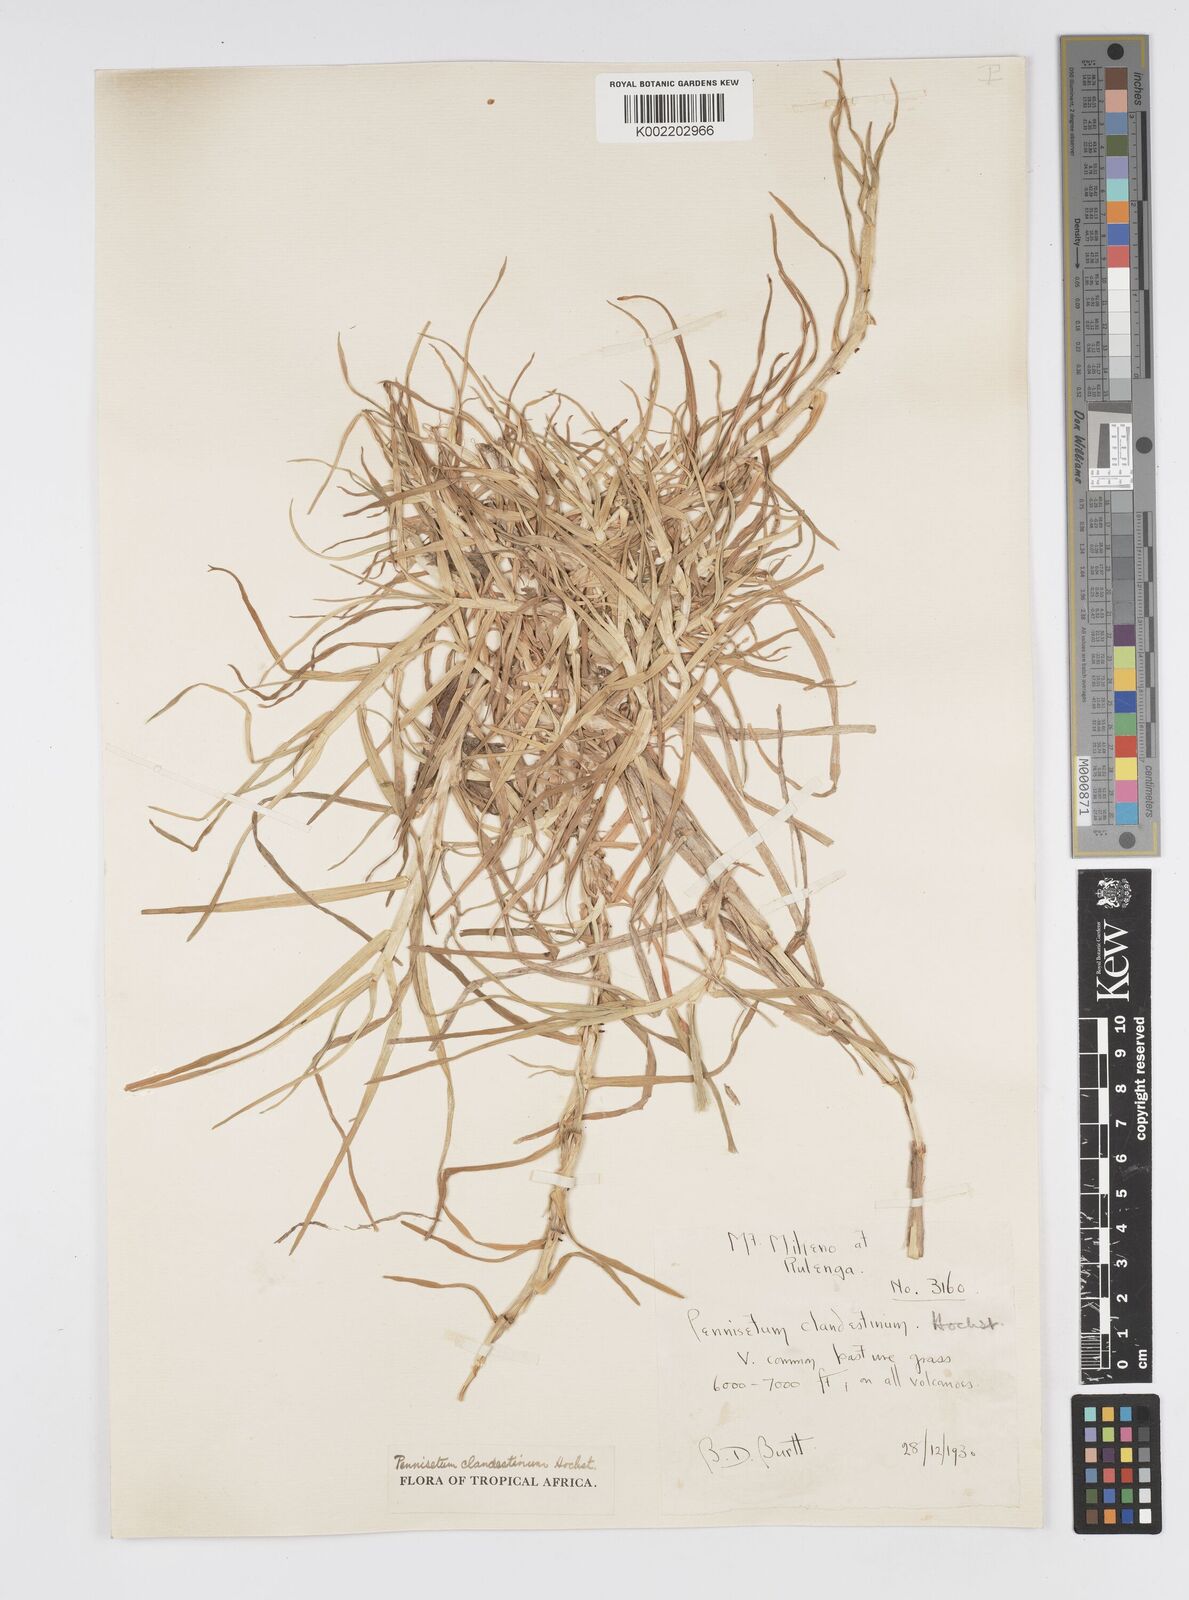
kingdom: Plantae
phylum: Tracheophyta
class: Liliopsida
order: Poales
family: Poaceae
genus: Cenchrus
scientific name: Cenchrus clandestinus
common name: Kikuyugrass
